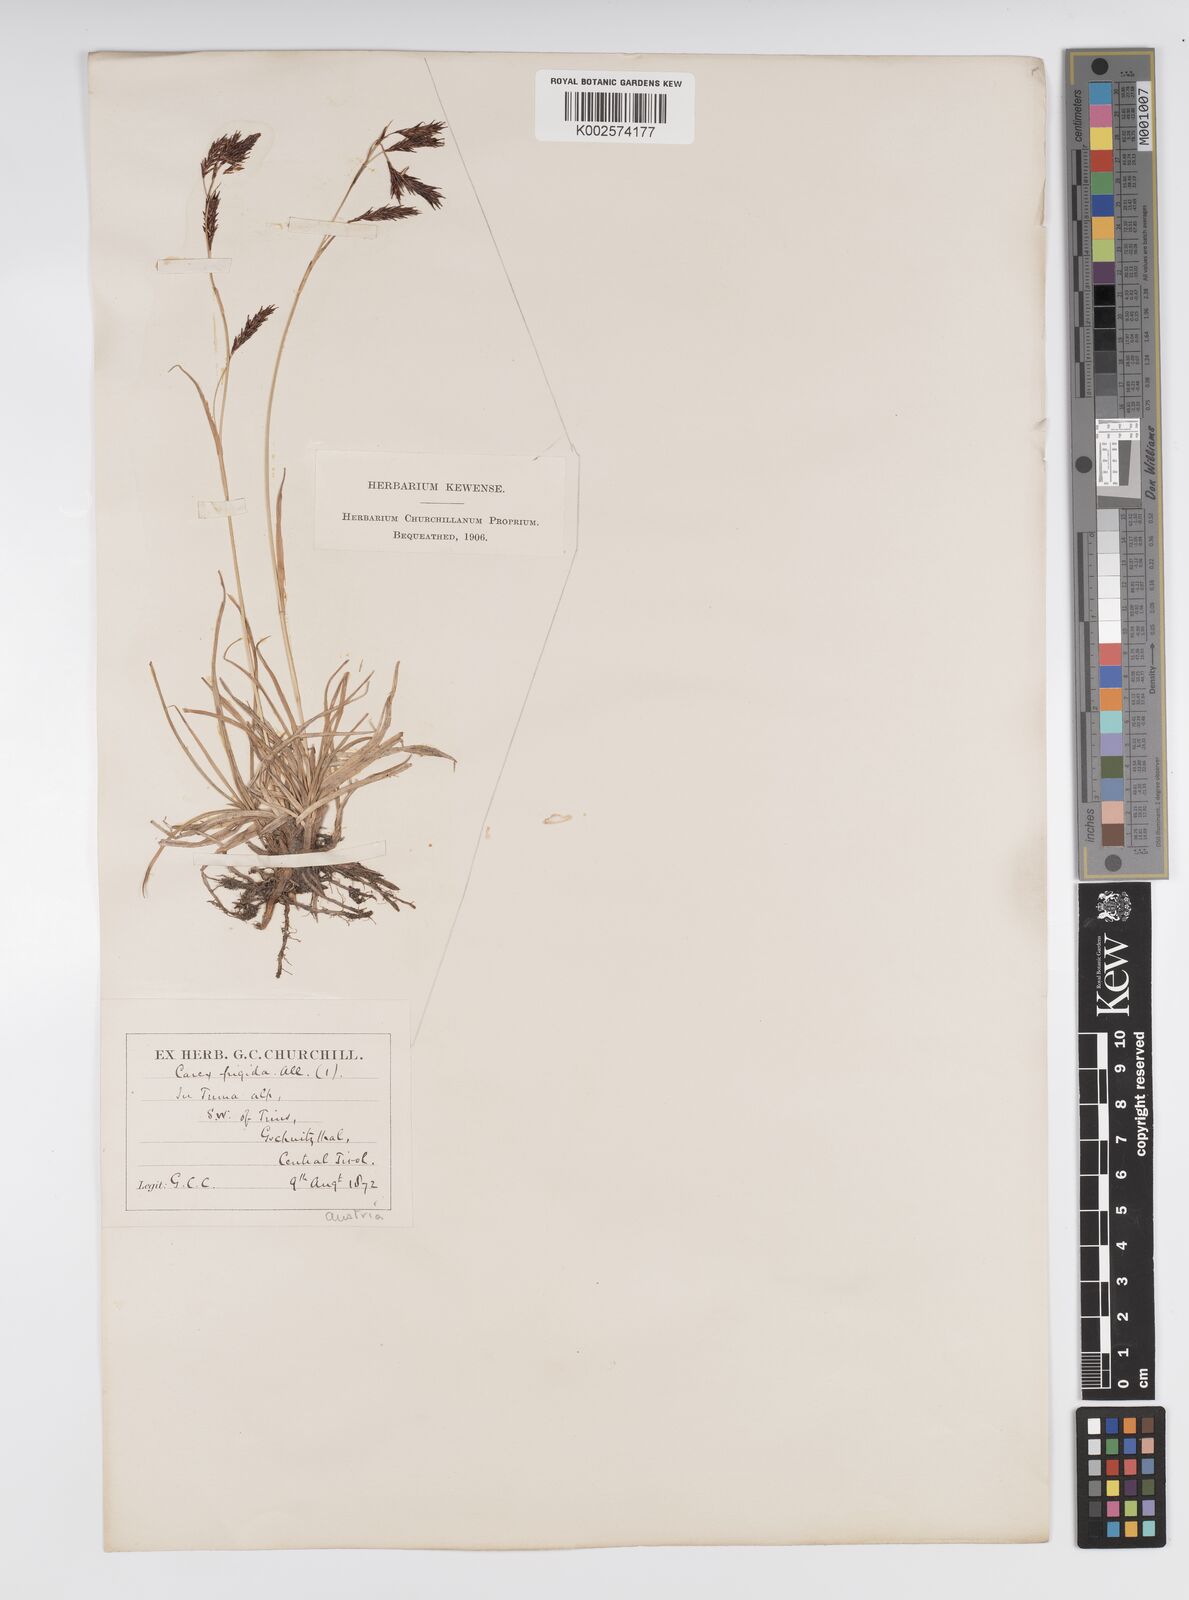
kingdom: Plantae
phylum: Tracheophyta
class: Liliopsida
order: Poales
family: Cyperaceae
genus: Carex
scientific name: Carex frigida
